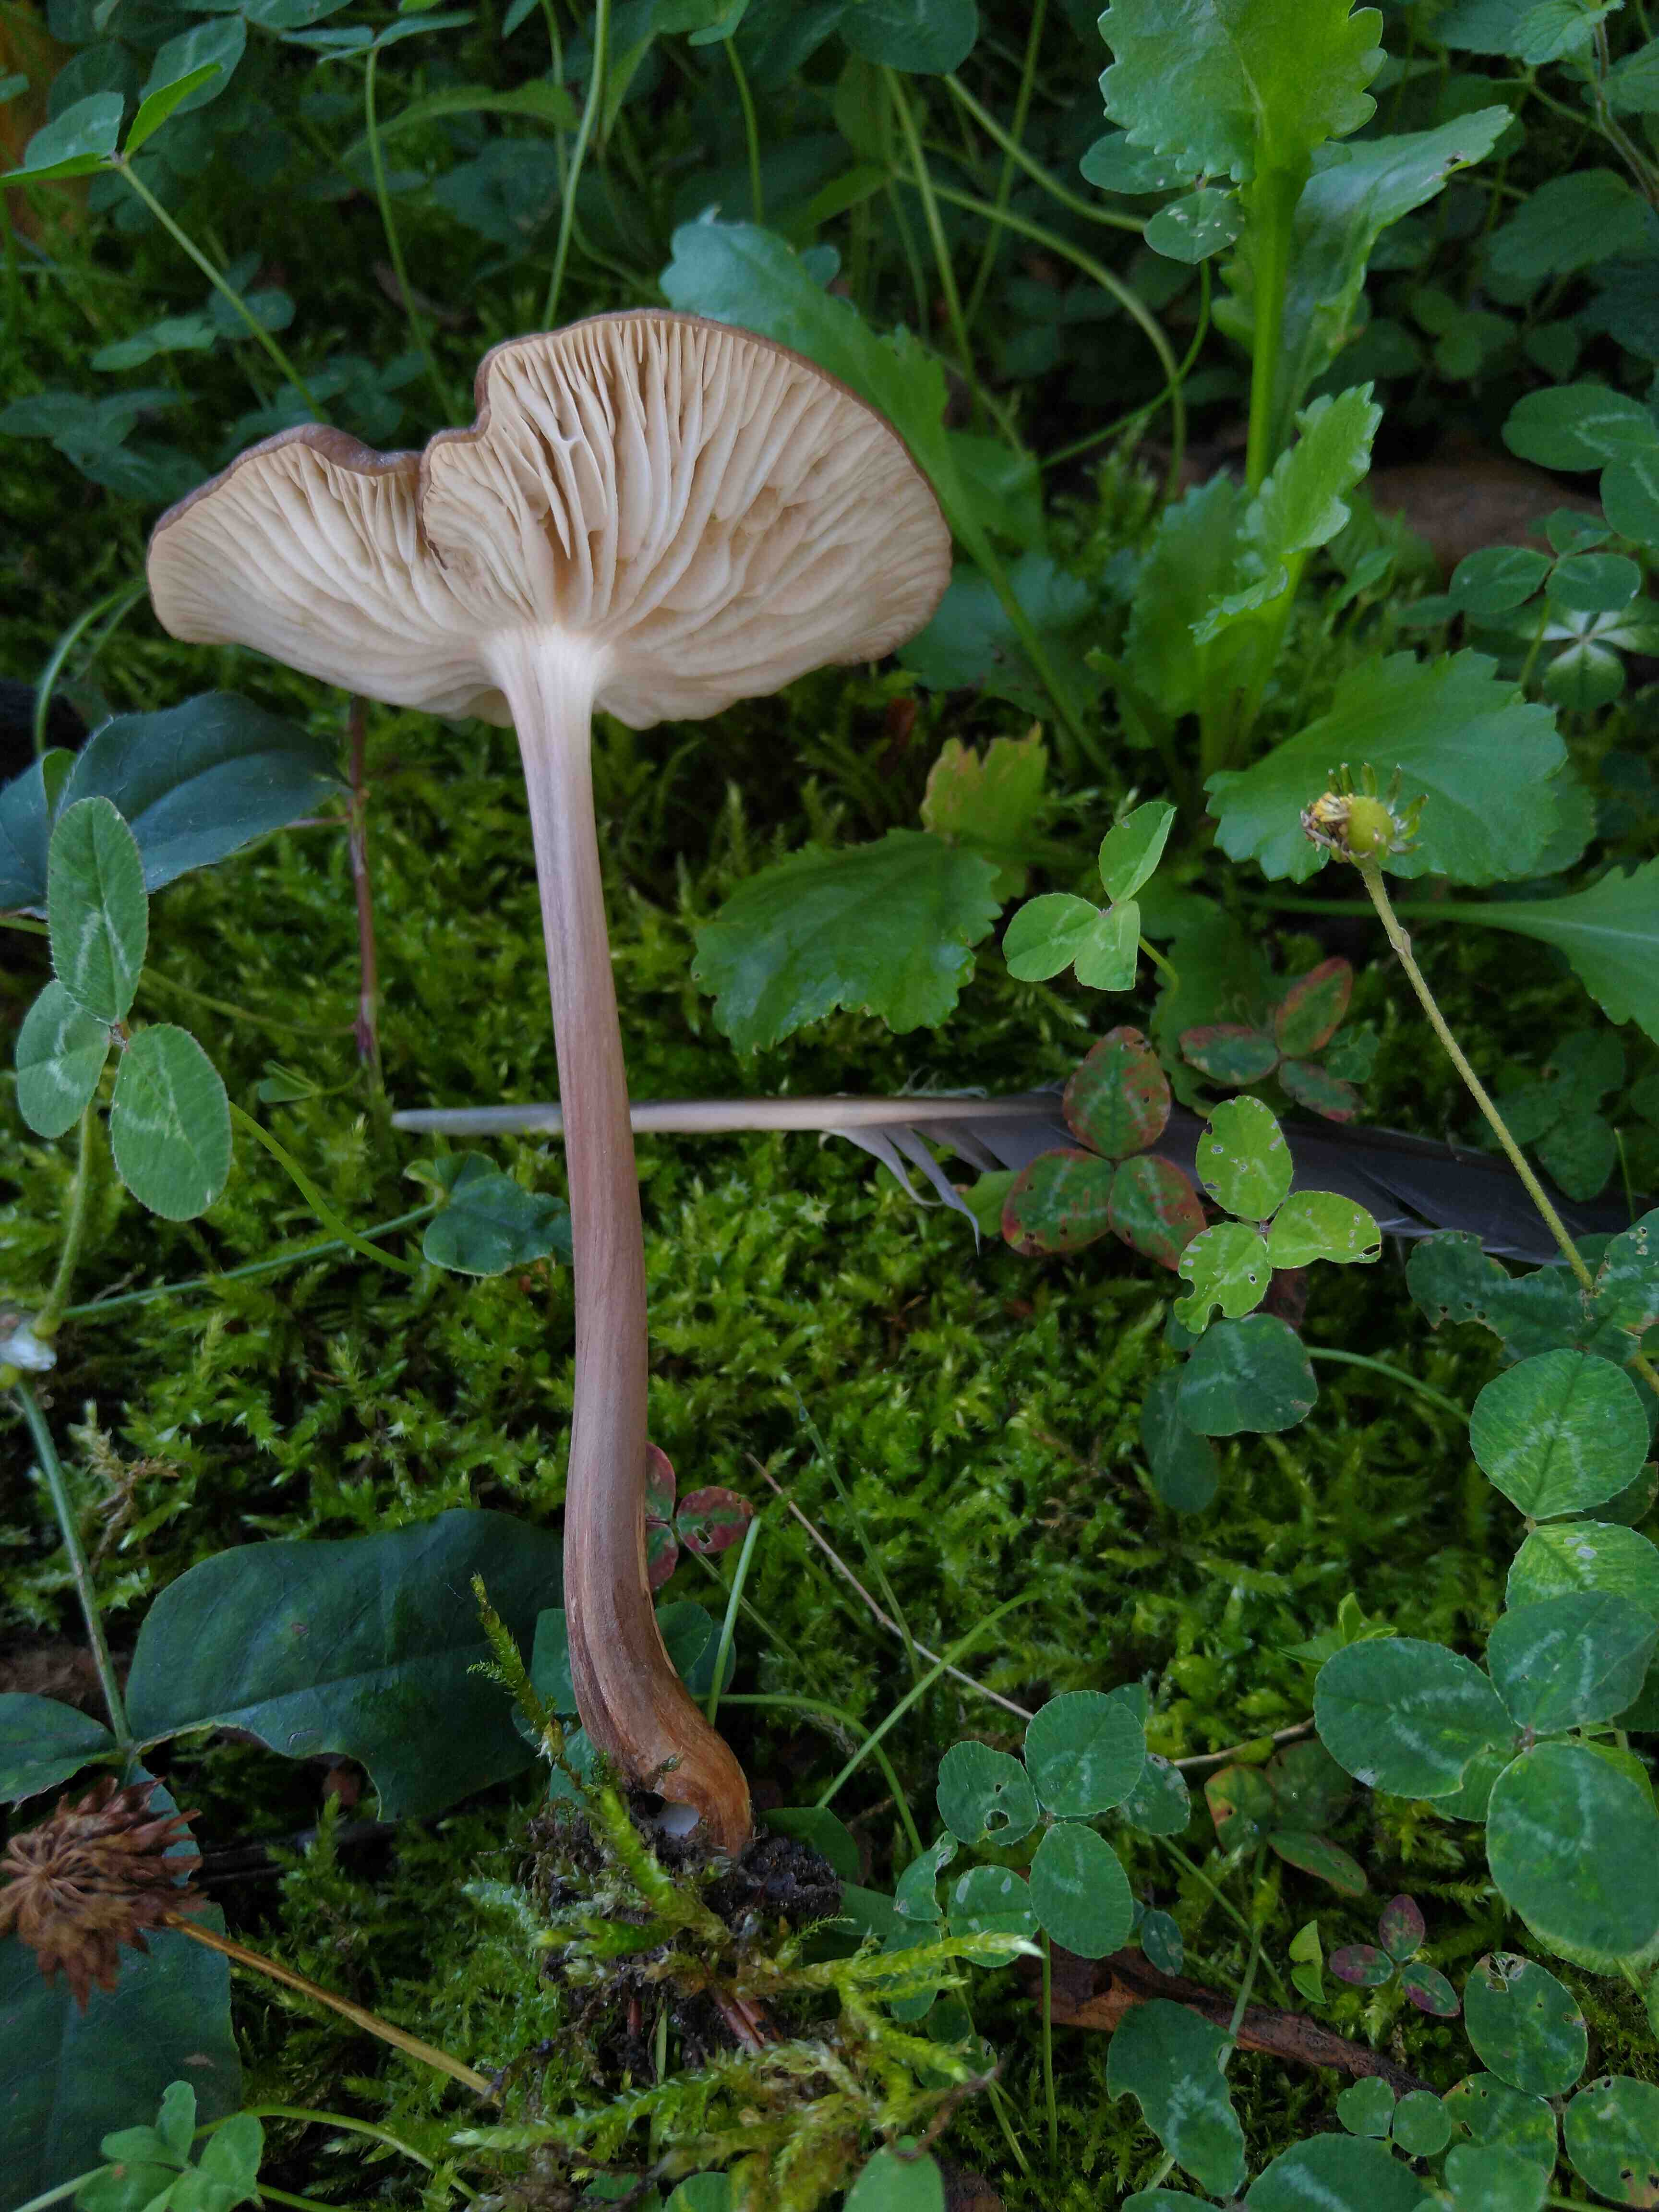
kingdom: Fungi
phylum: Basidiomycota
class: Agaricomycetes
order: Agaricales
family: Physalacriaceae
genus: Hymenopellis
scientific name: Hymenopellis radicata
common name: almindelig pælerodshat
